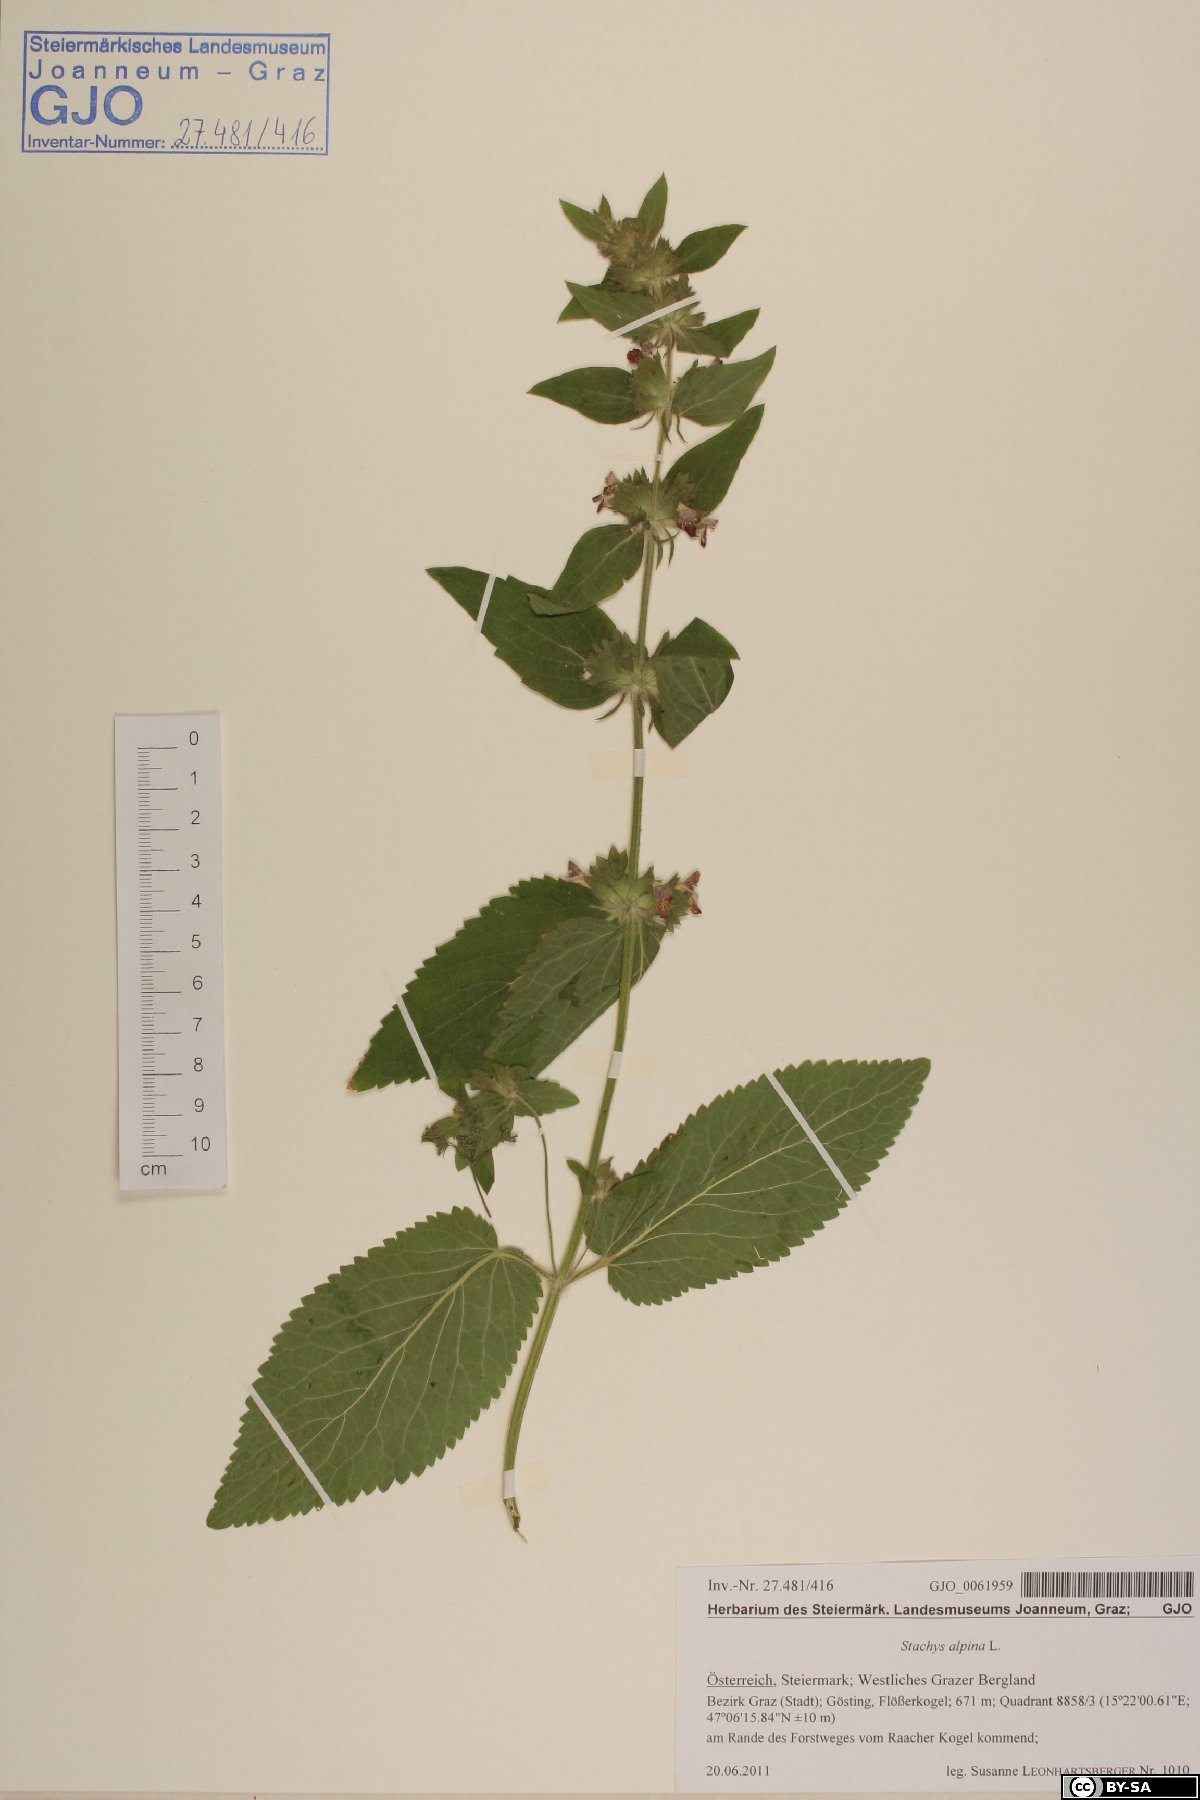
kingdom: Plantae
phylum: Tracheophyta
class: Magnoliopsida
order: Lamiales
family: Lamiaceae
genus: Stachys
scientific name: Stachys alpina
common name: Limestone woundwort
